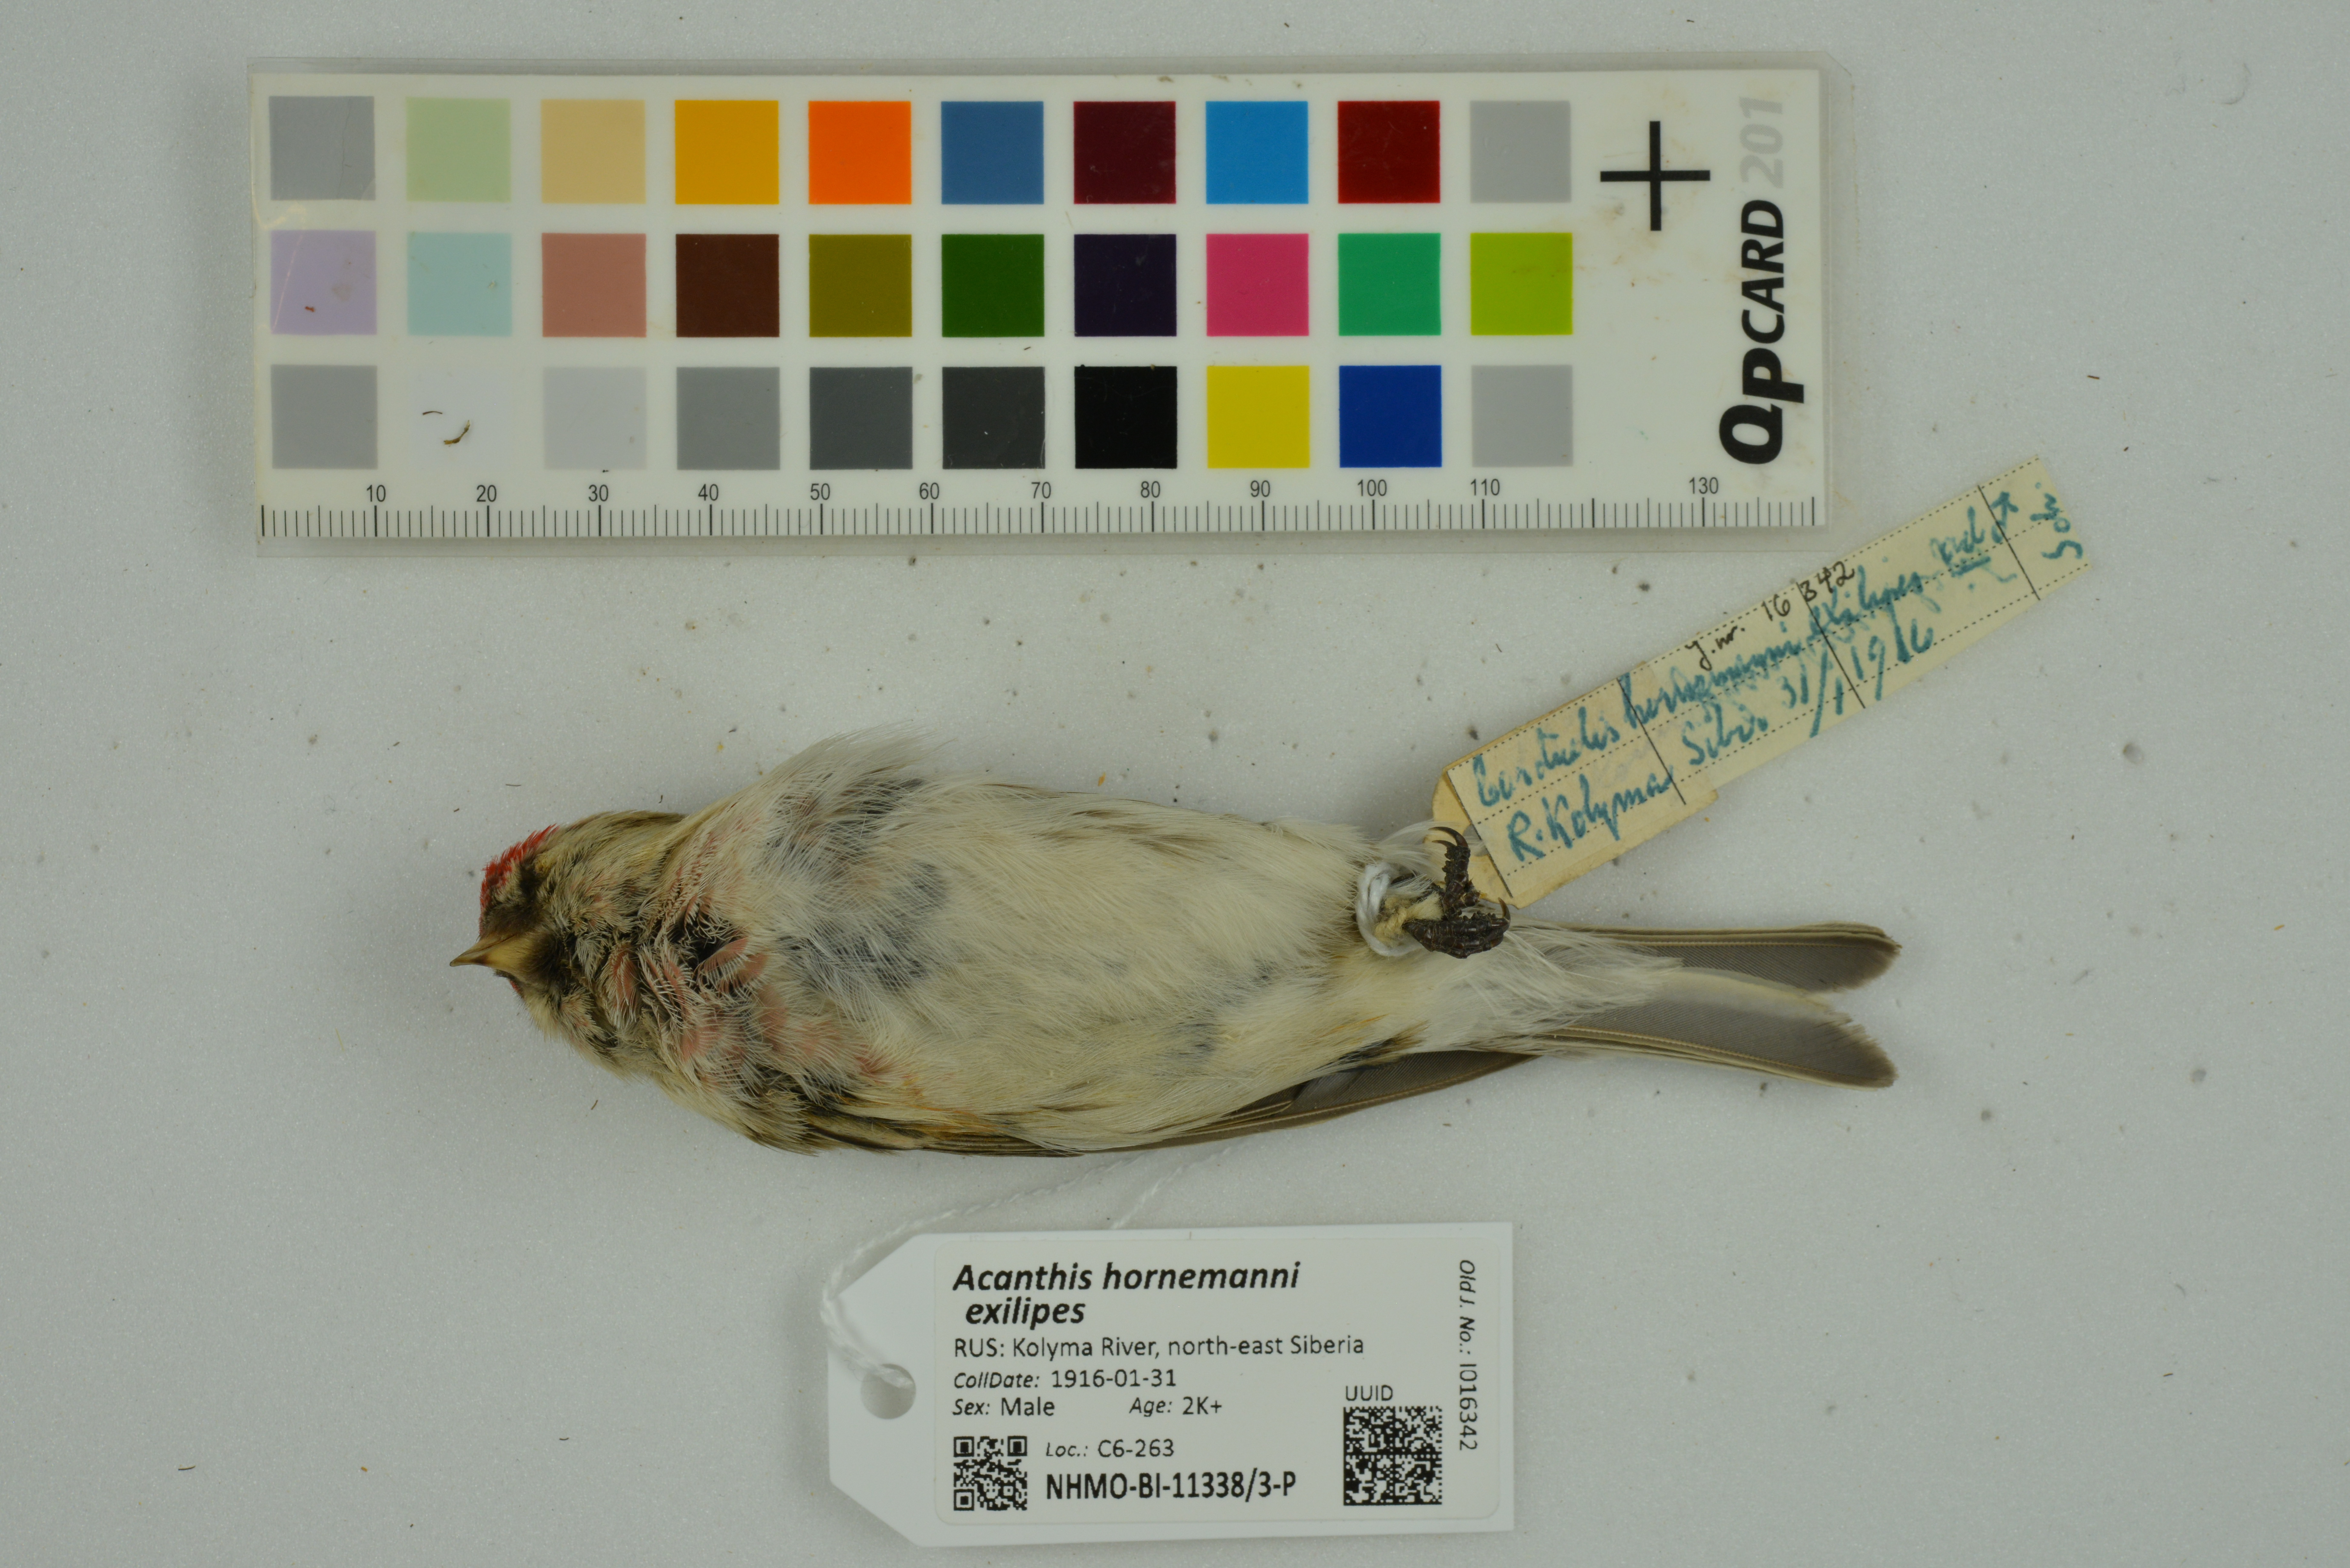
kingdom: Animalia
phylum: Chordata
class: Aves
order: Passeriformes
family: Fringillidae
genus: Acanthis
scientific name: Acanthis hornemanni
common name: Arctic redpoll
